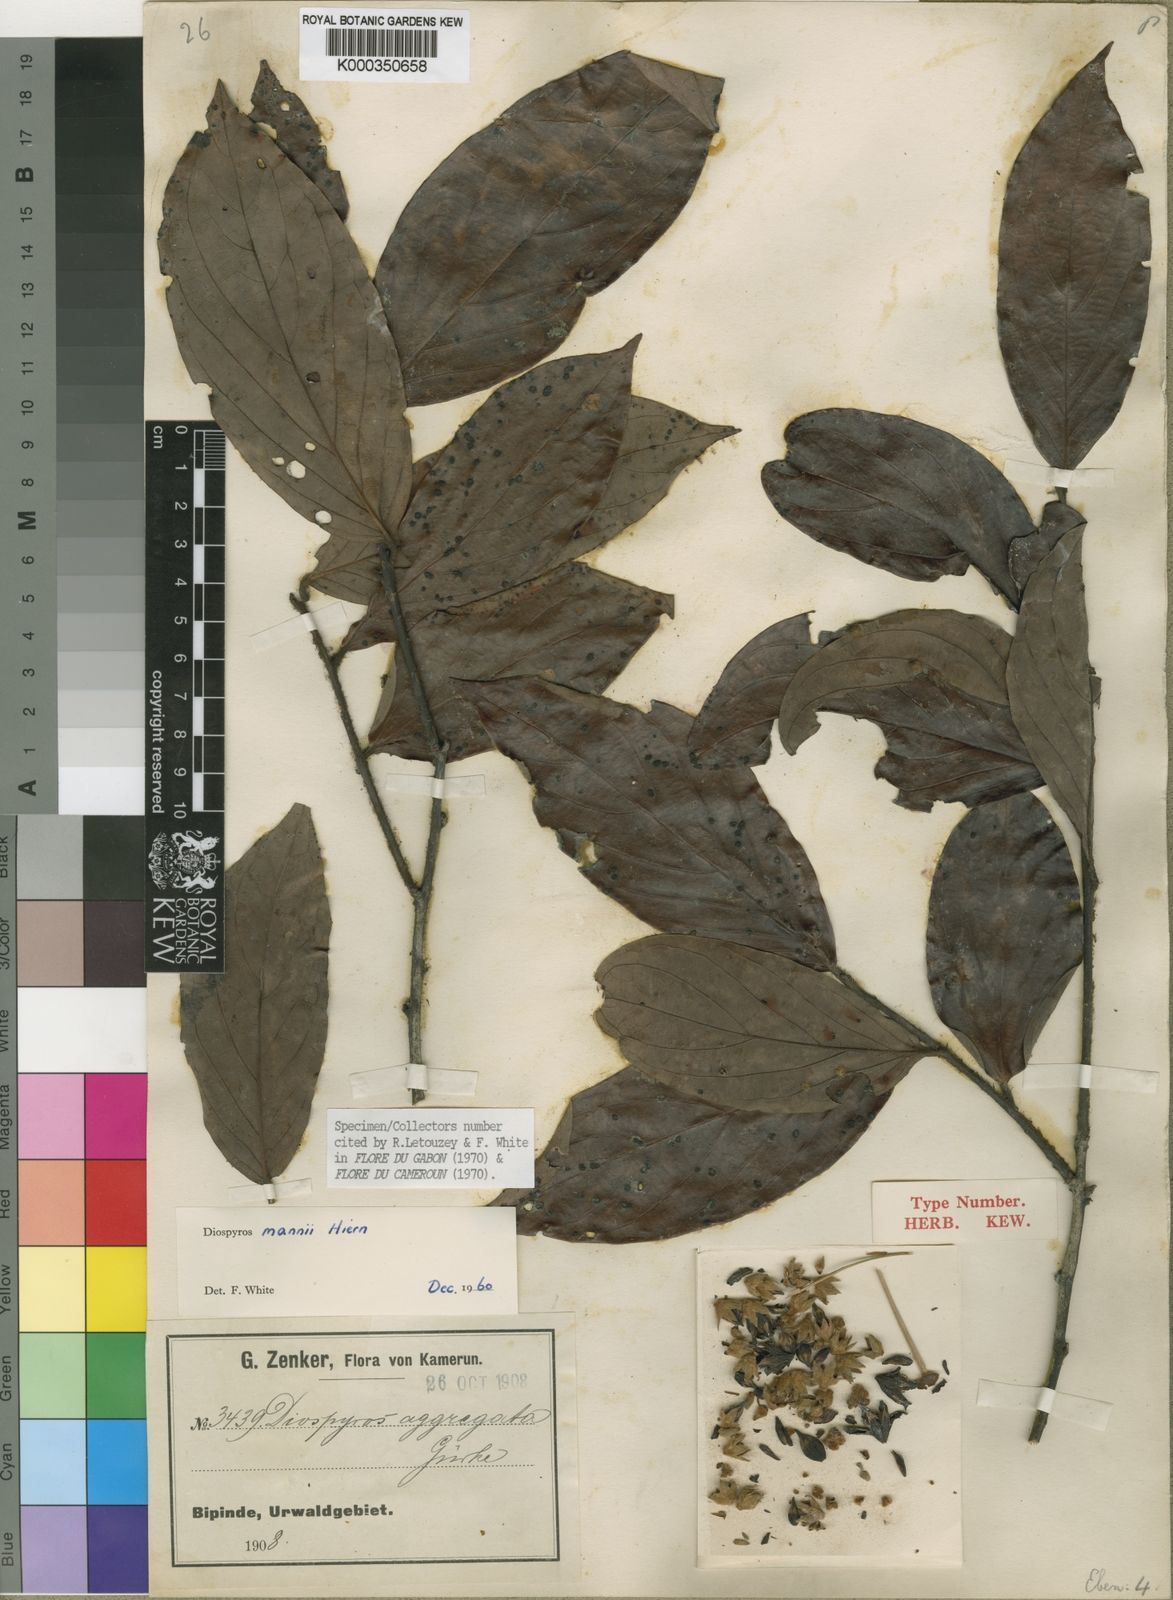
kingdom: Plantae
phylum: Tracheophyta
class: Magnoliopsida
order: Ericales
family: Ebenaceae
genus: Diospyros
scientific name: Diospyros mannii
